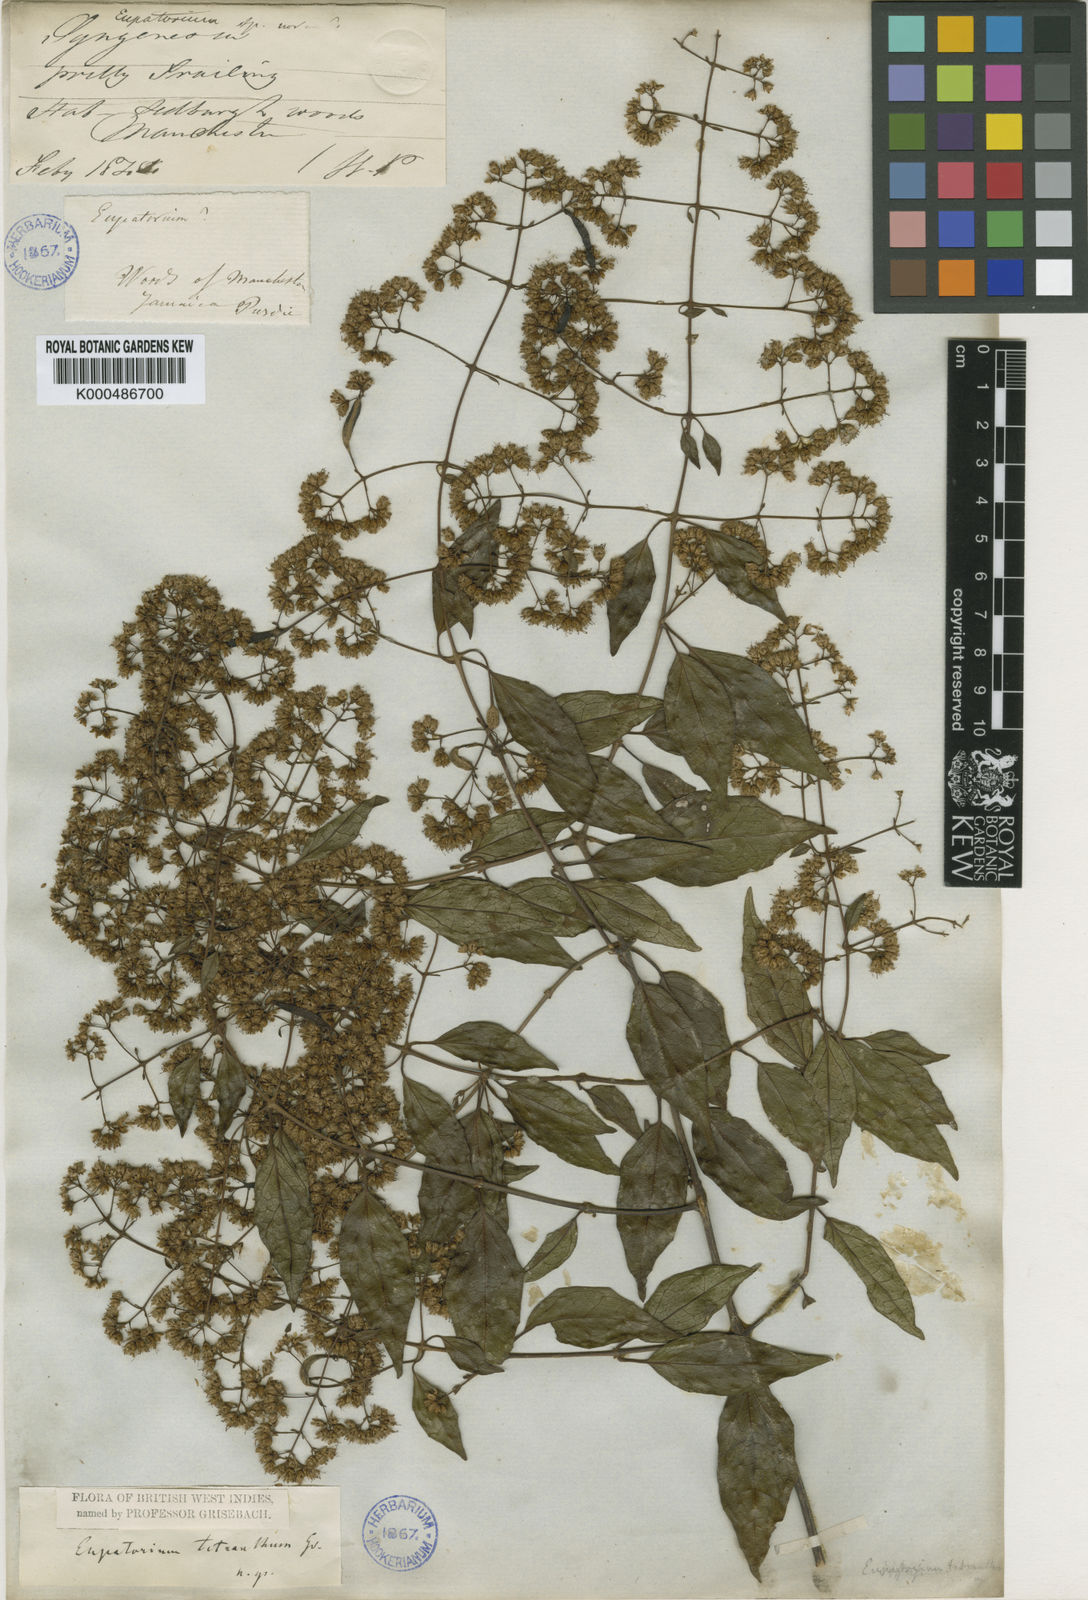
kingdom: Plantae
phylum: Tracheophyta
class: Magnoliopsida
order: Asterales
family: Asteraceae
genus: Koanophyllon
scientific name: Koanophyllon tetranthum
